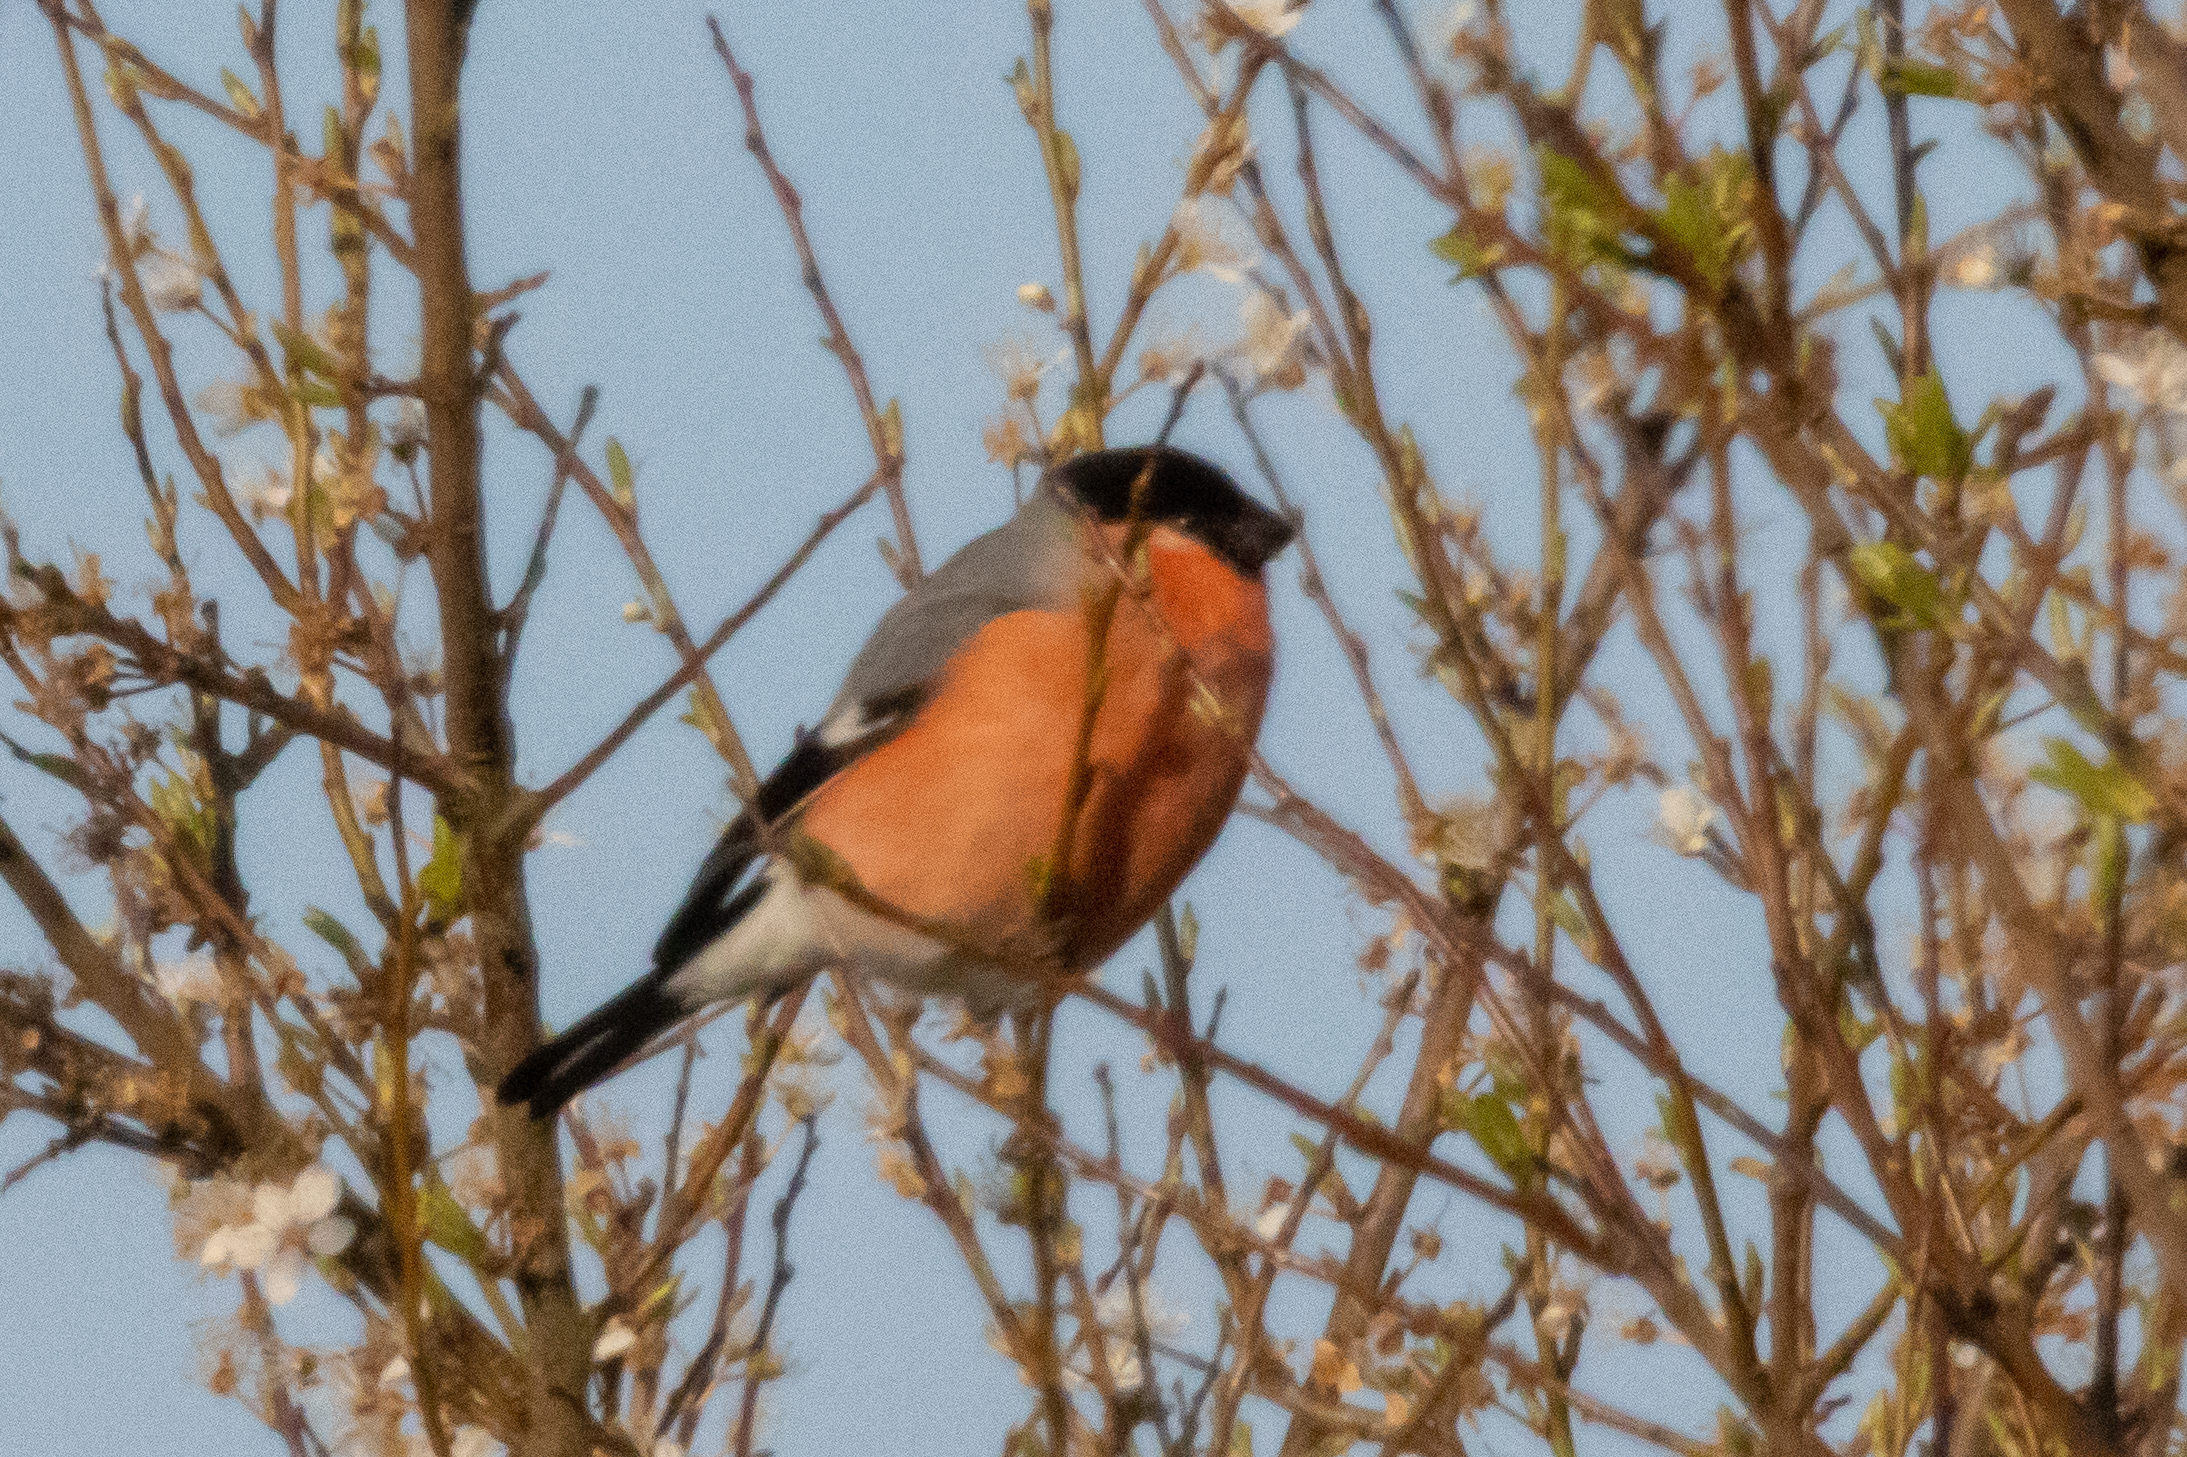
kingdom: Animalia
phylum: Chordata
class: Aves
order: Passeriformes
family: Fringillidae
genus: Pyrrhula
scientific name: Pyrrhula pyrrhula
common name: Dompap
